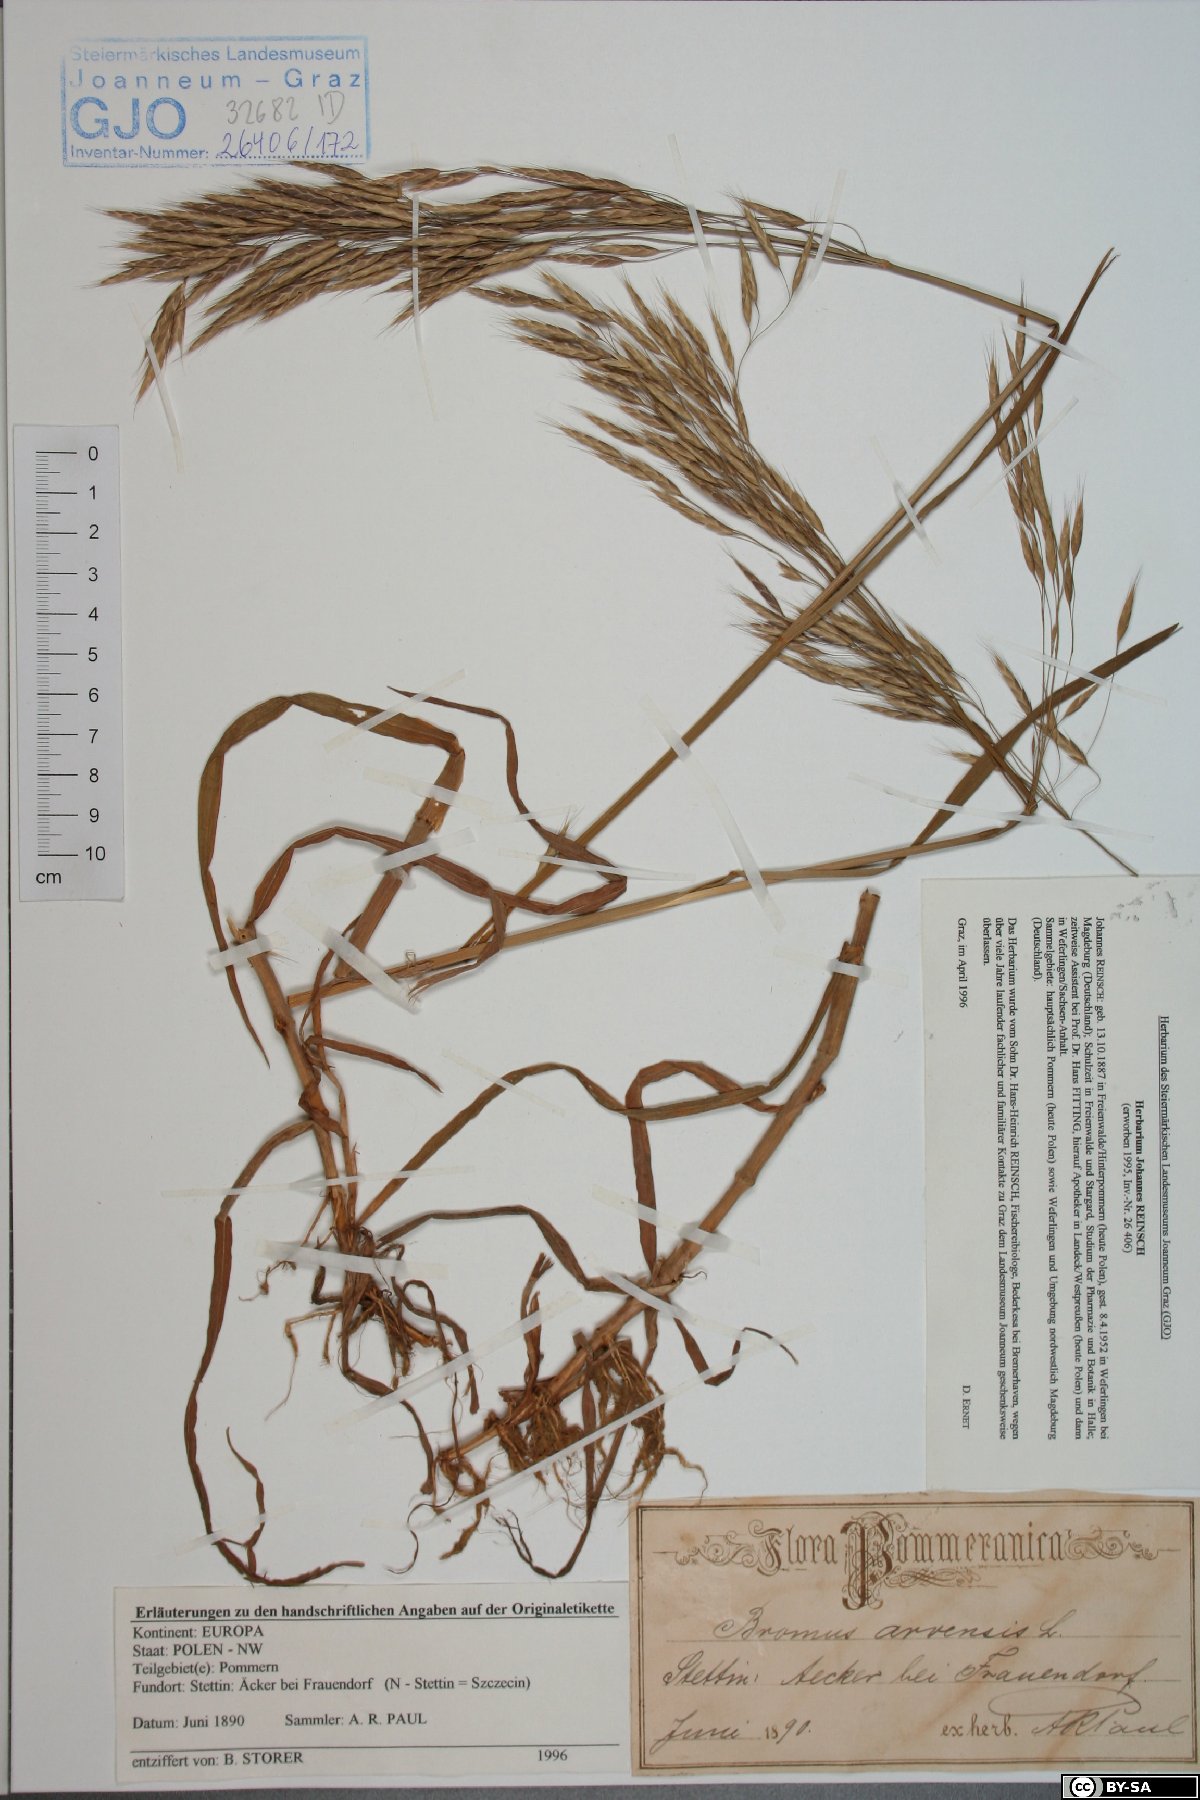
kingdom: Plantae
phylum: Tracheophyta
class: Liliopsida
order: Poales
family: Poaceae
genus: Bromus
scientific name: Bromus arvensis
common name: Field brome
